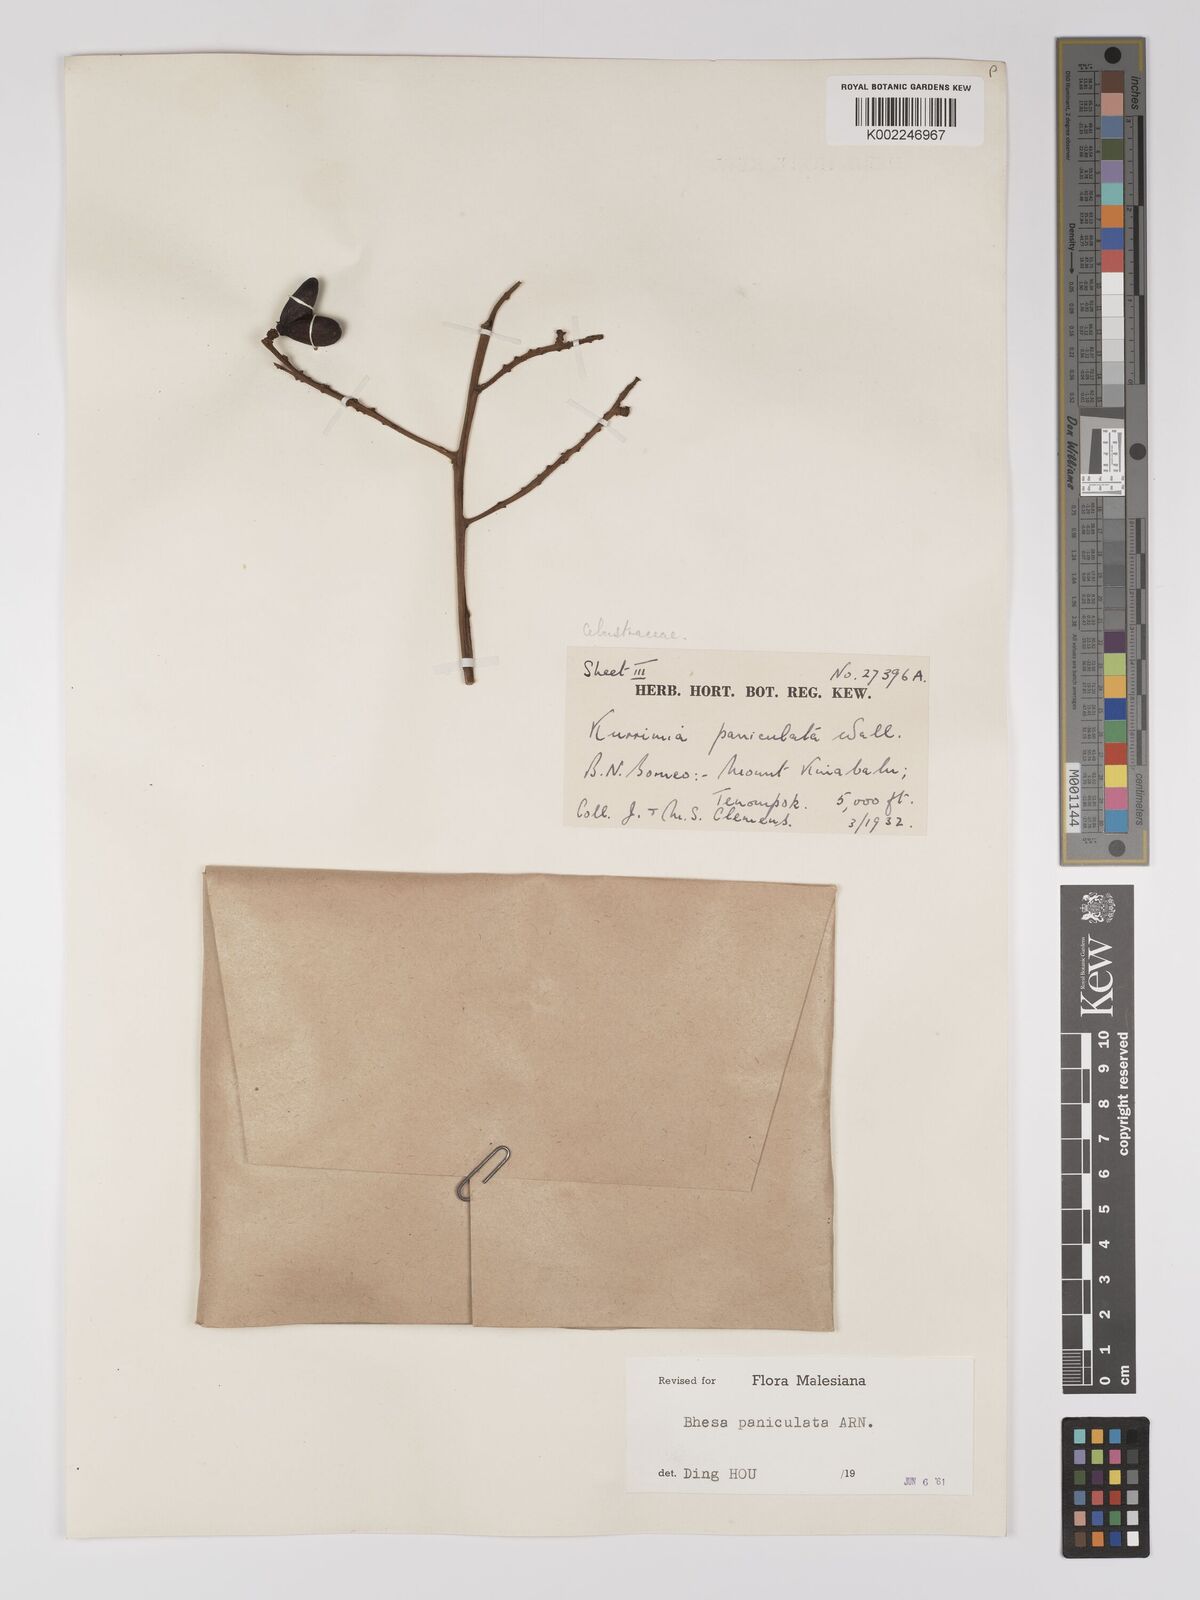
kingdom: Plantae
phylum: Tracheophyta
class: Magnoliopsida
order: Malpighiales
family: Centroplacaceae
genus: Bhesa
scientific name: Bhesa paniculata
